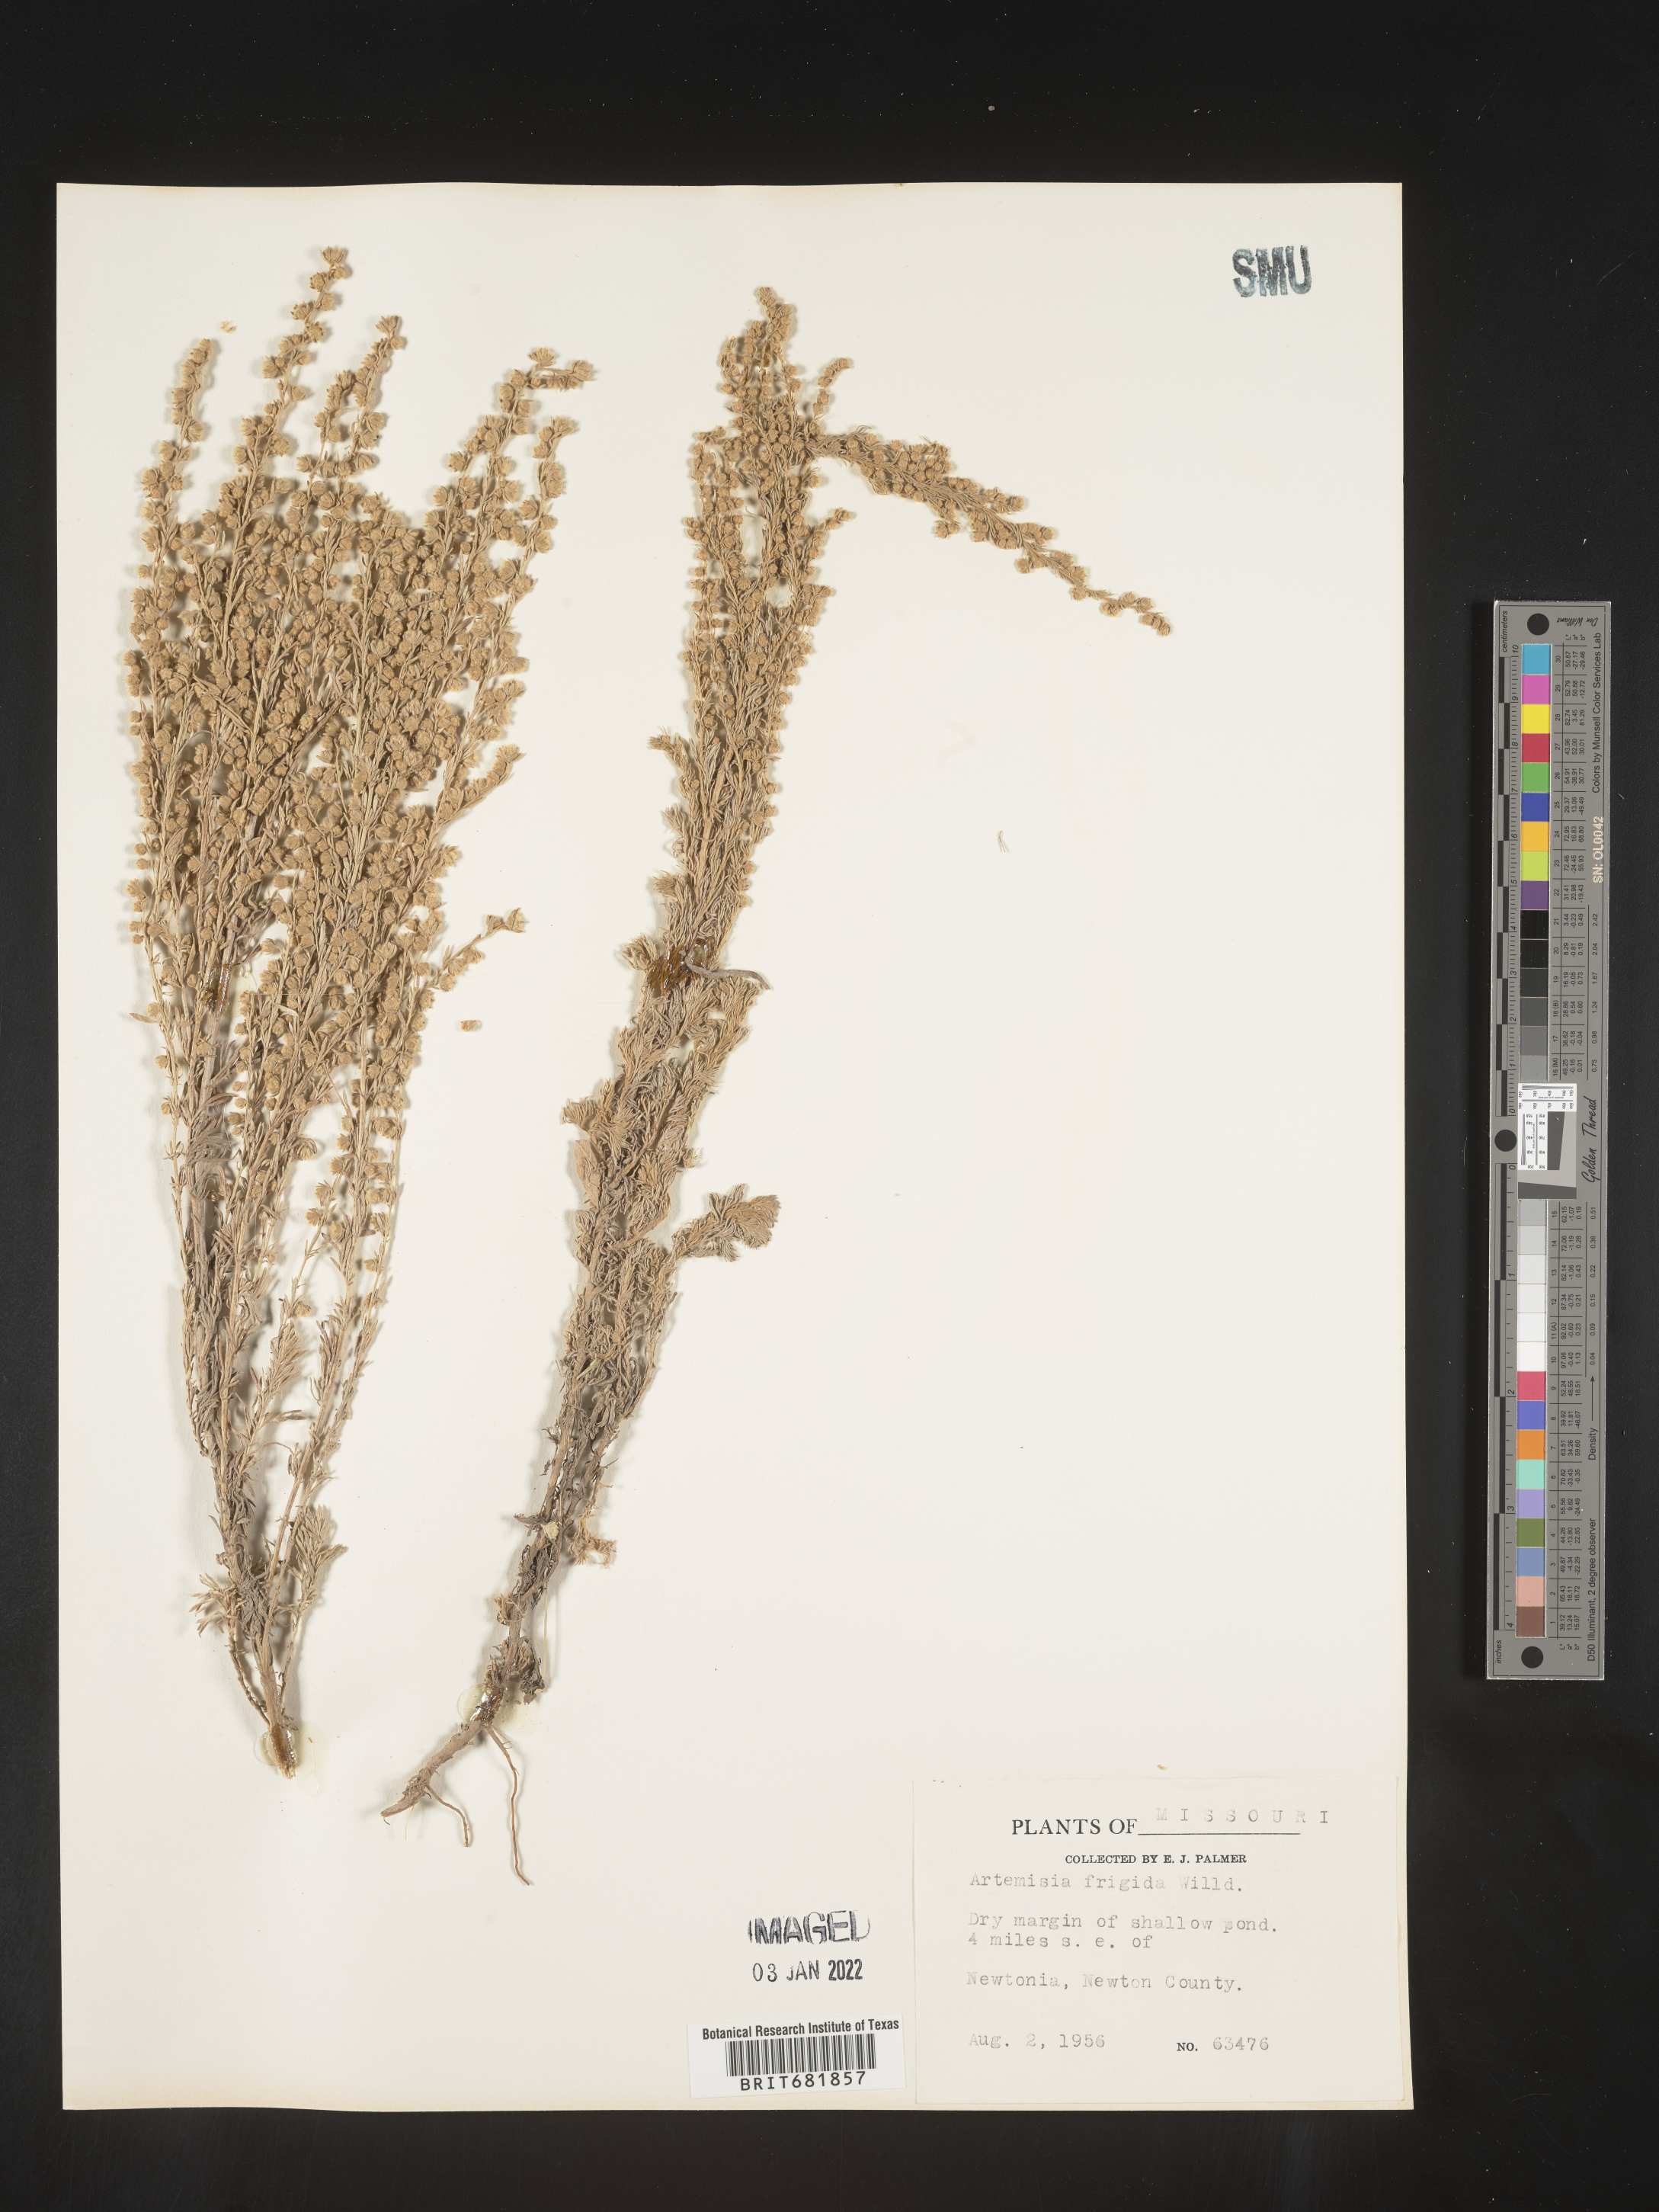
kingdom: Plantae
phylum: Tracheophyta
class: Magnoliopsida
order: Asterales
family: Asteraceae
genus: Artemisia
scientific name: Artemisia frigida
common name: Prairie sagewort
